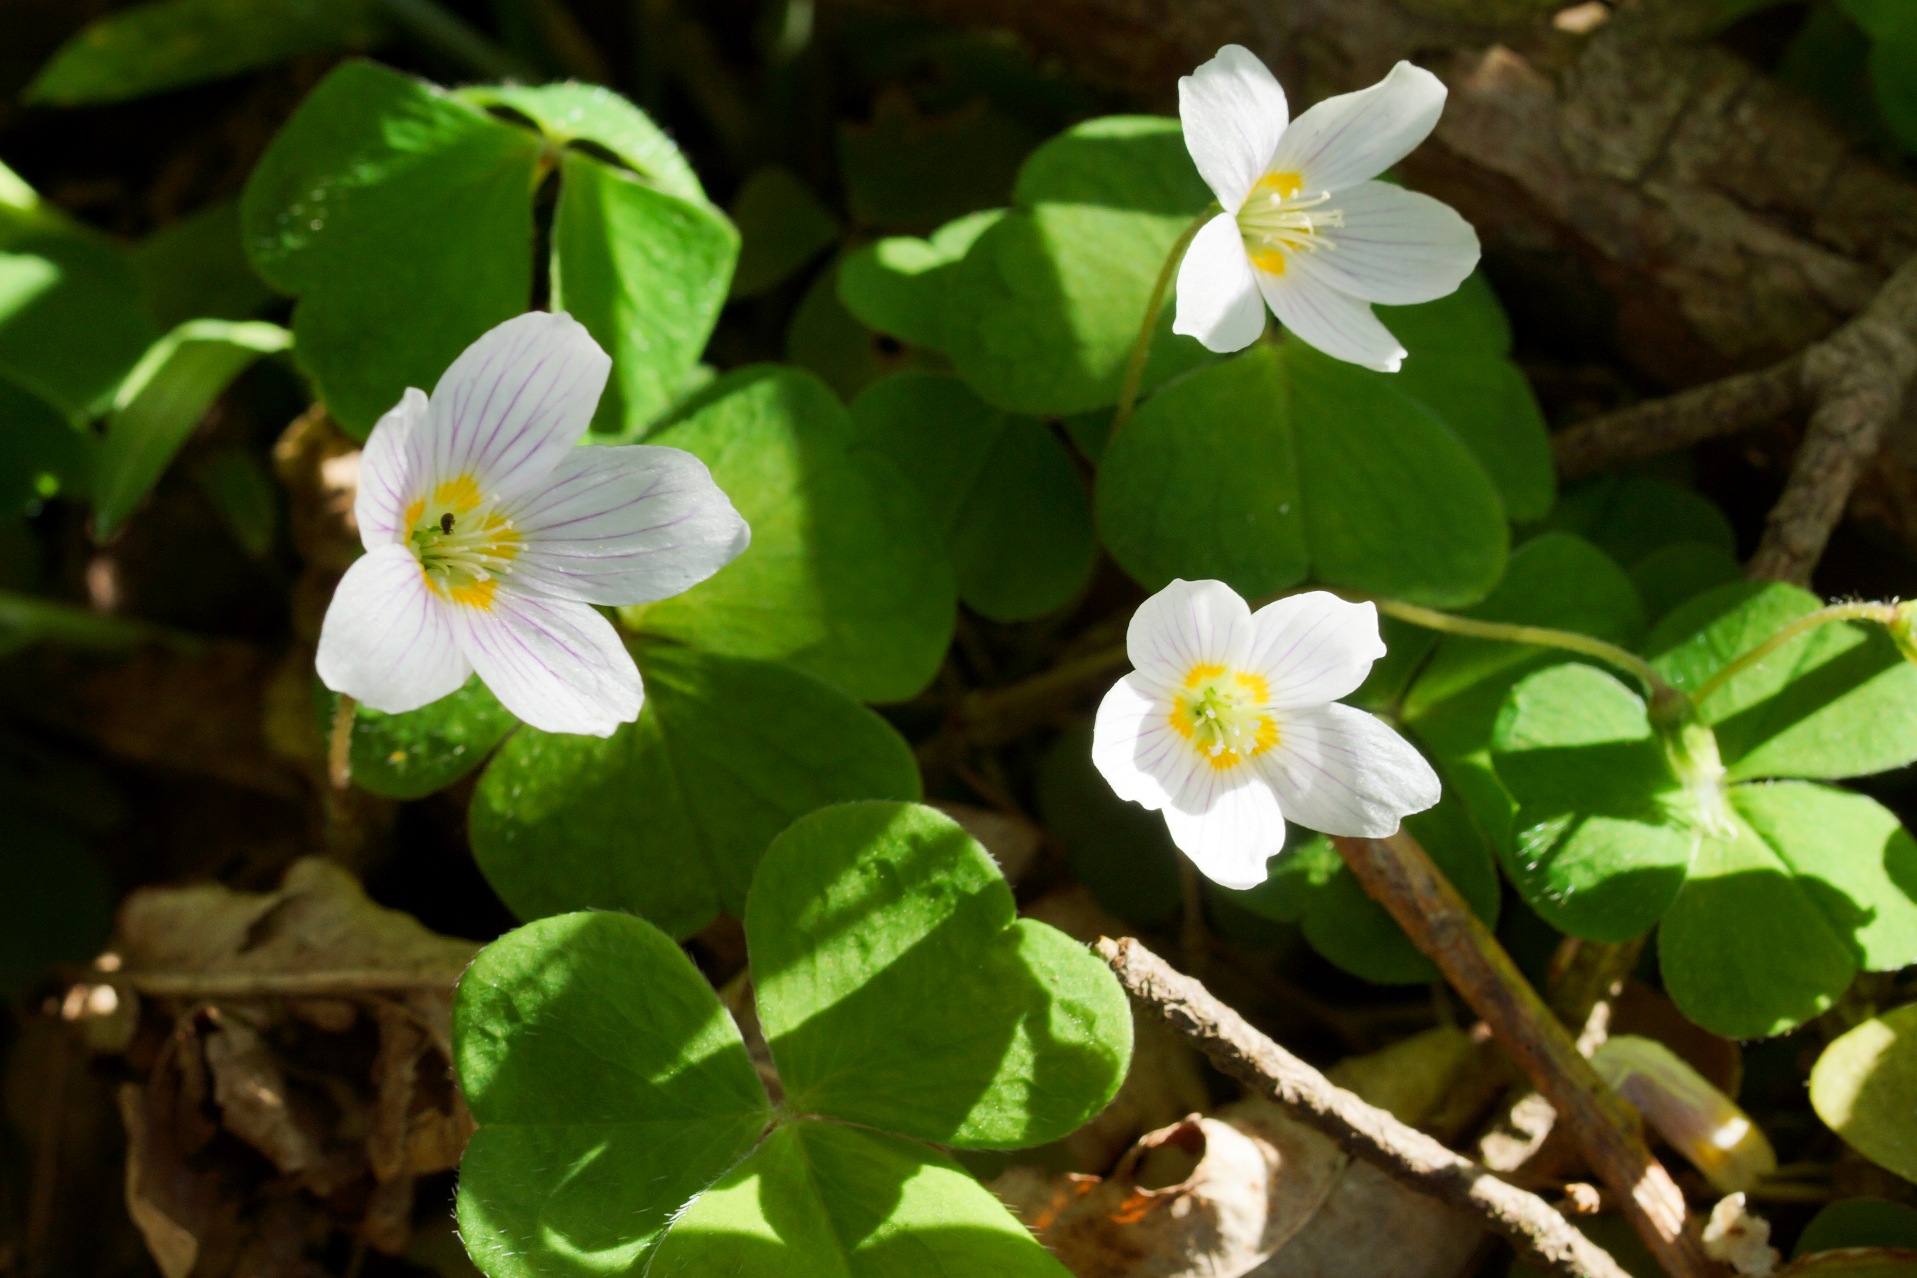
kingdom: Plantae
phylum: Tracheophyta
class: Magnoliopsida
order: Oxalidales
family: Oxalidaceae
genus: Oxalis
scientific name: Oxalis acetosella
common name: Skovsyre
